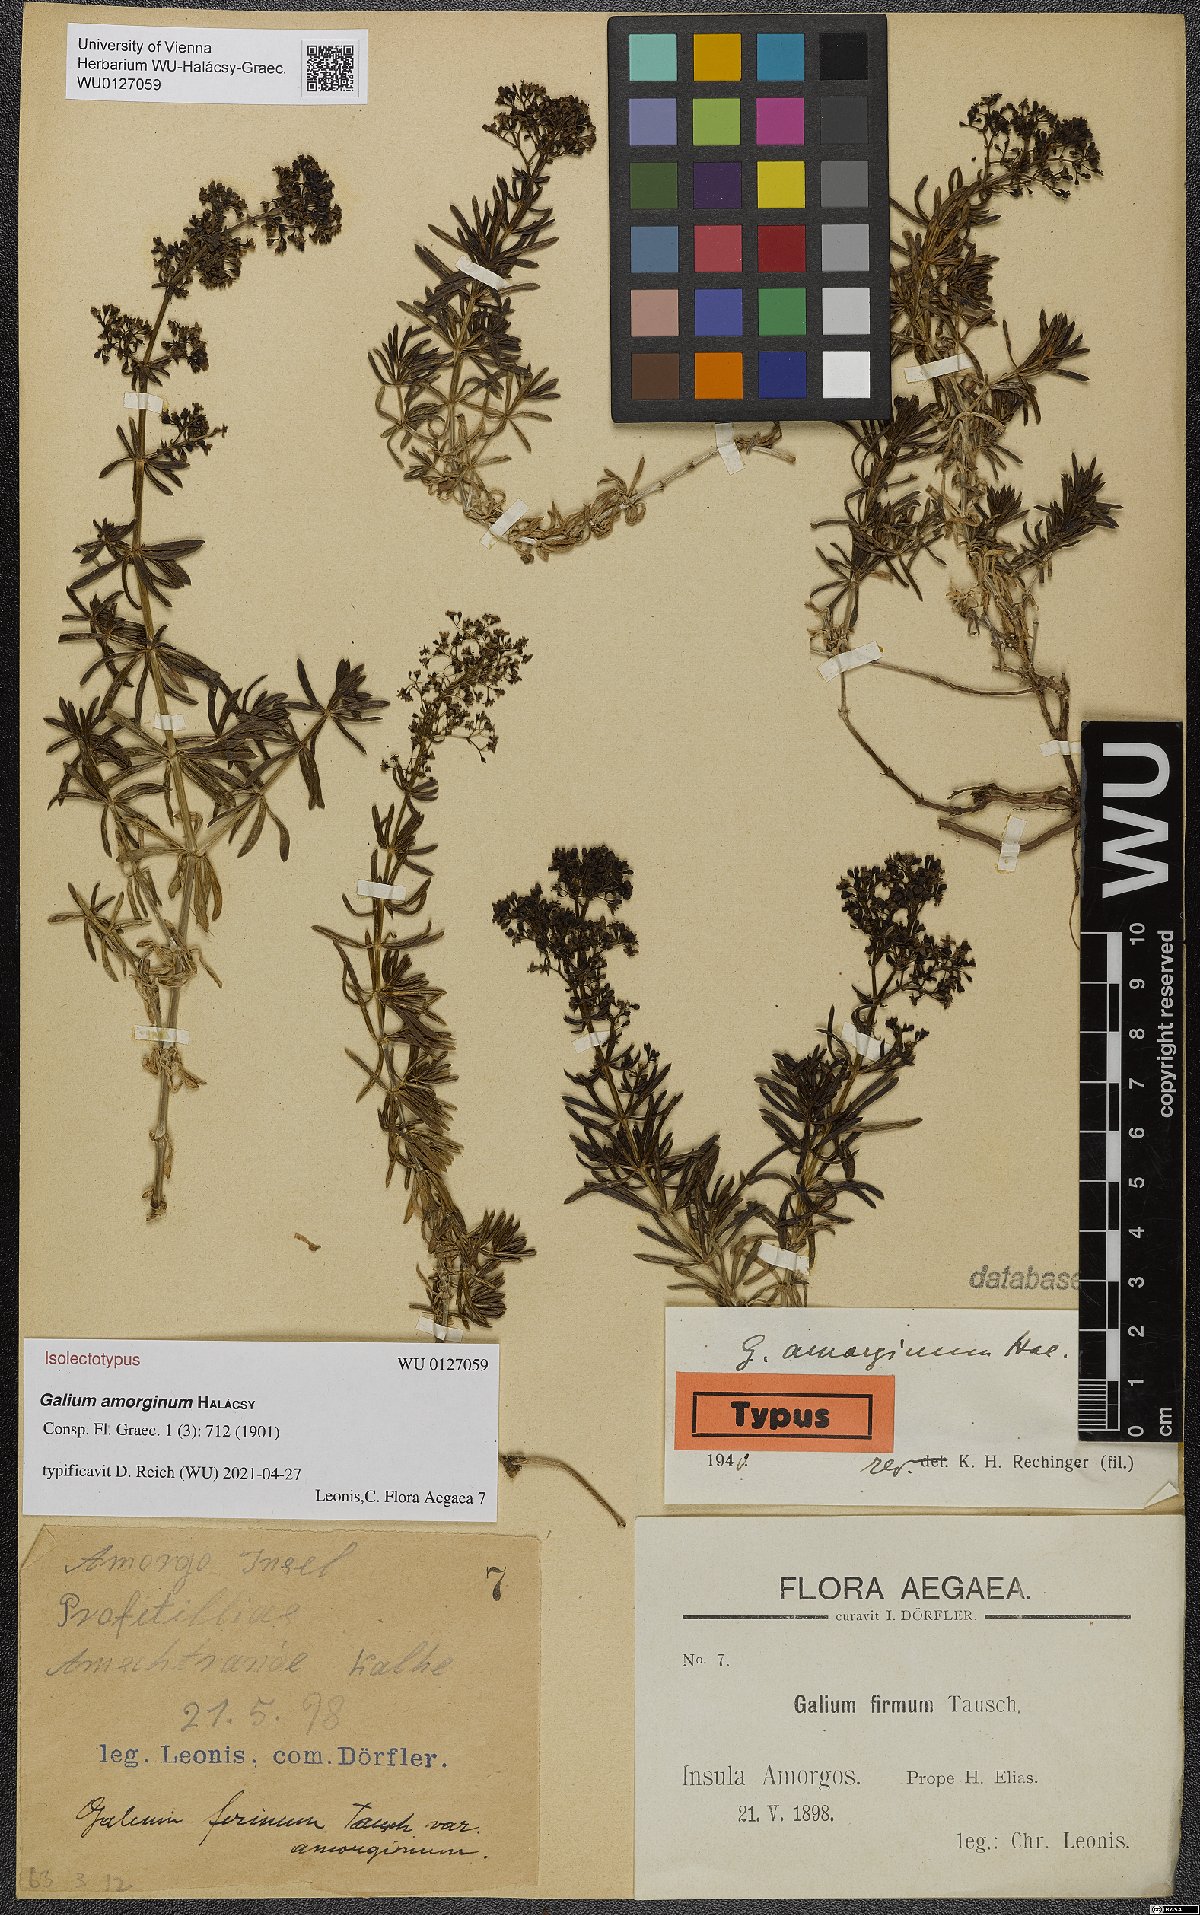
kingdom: Plantae
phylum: Tracheophyta
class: Magnoliopsida
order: Gentianales
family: Rubiaceae
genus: Galium
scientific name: Galium amorginum
